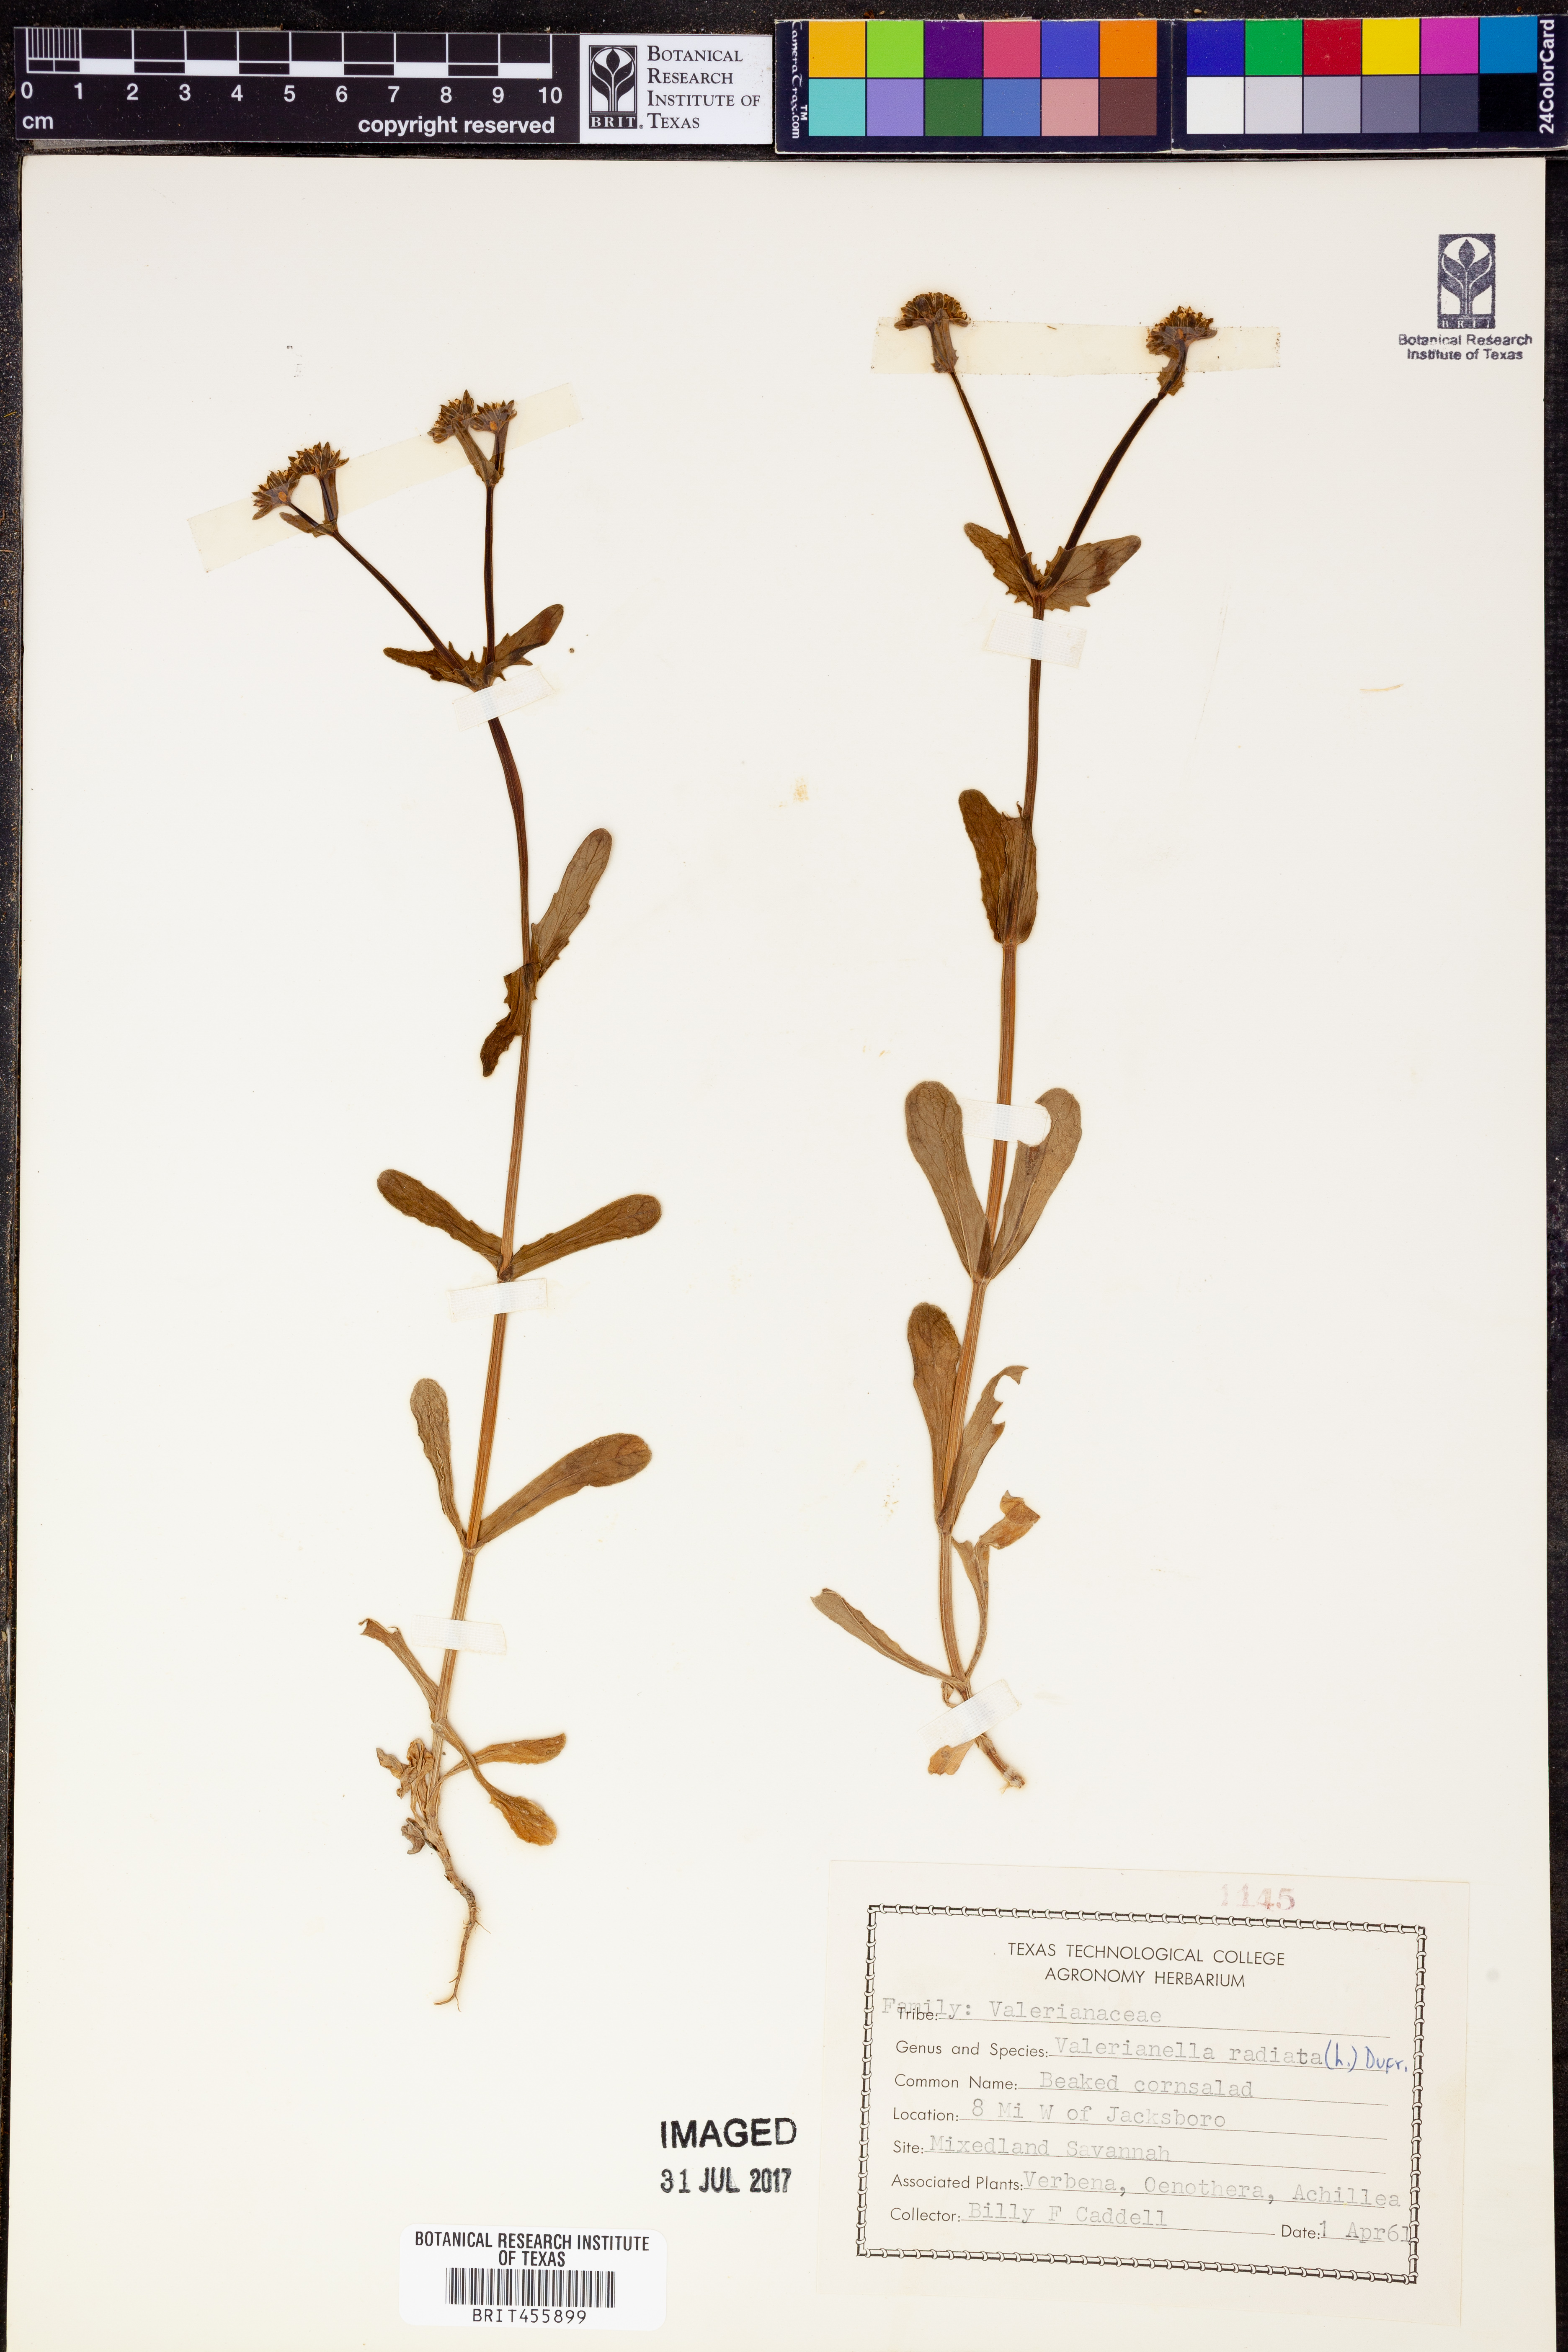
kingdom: Plantae
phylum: Tracheophyta
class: Magnoliopsida
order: Dipsacales
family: Caprifoliaceae
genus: Valerianella
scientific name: Valerianella radiata
